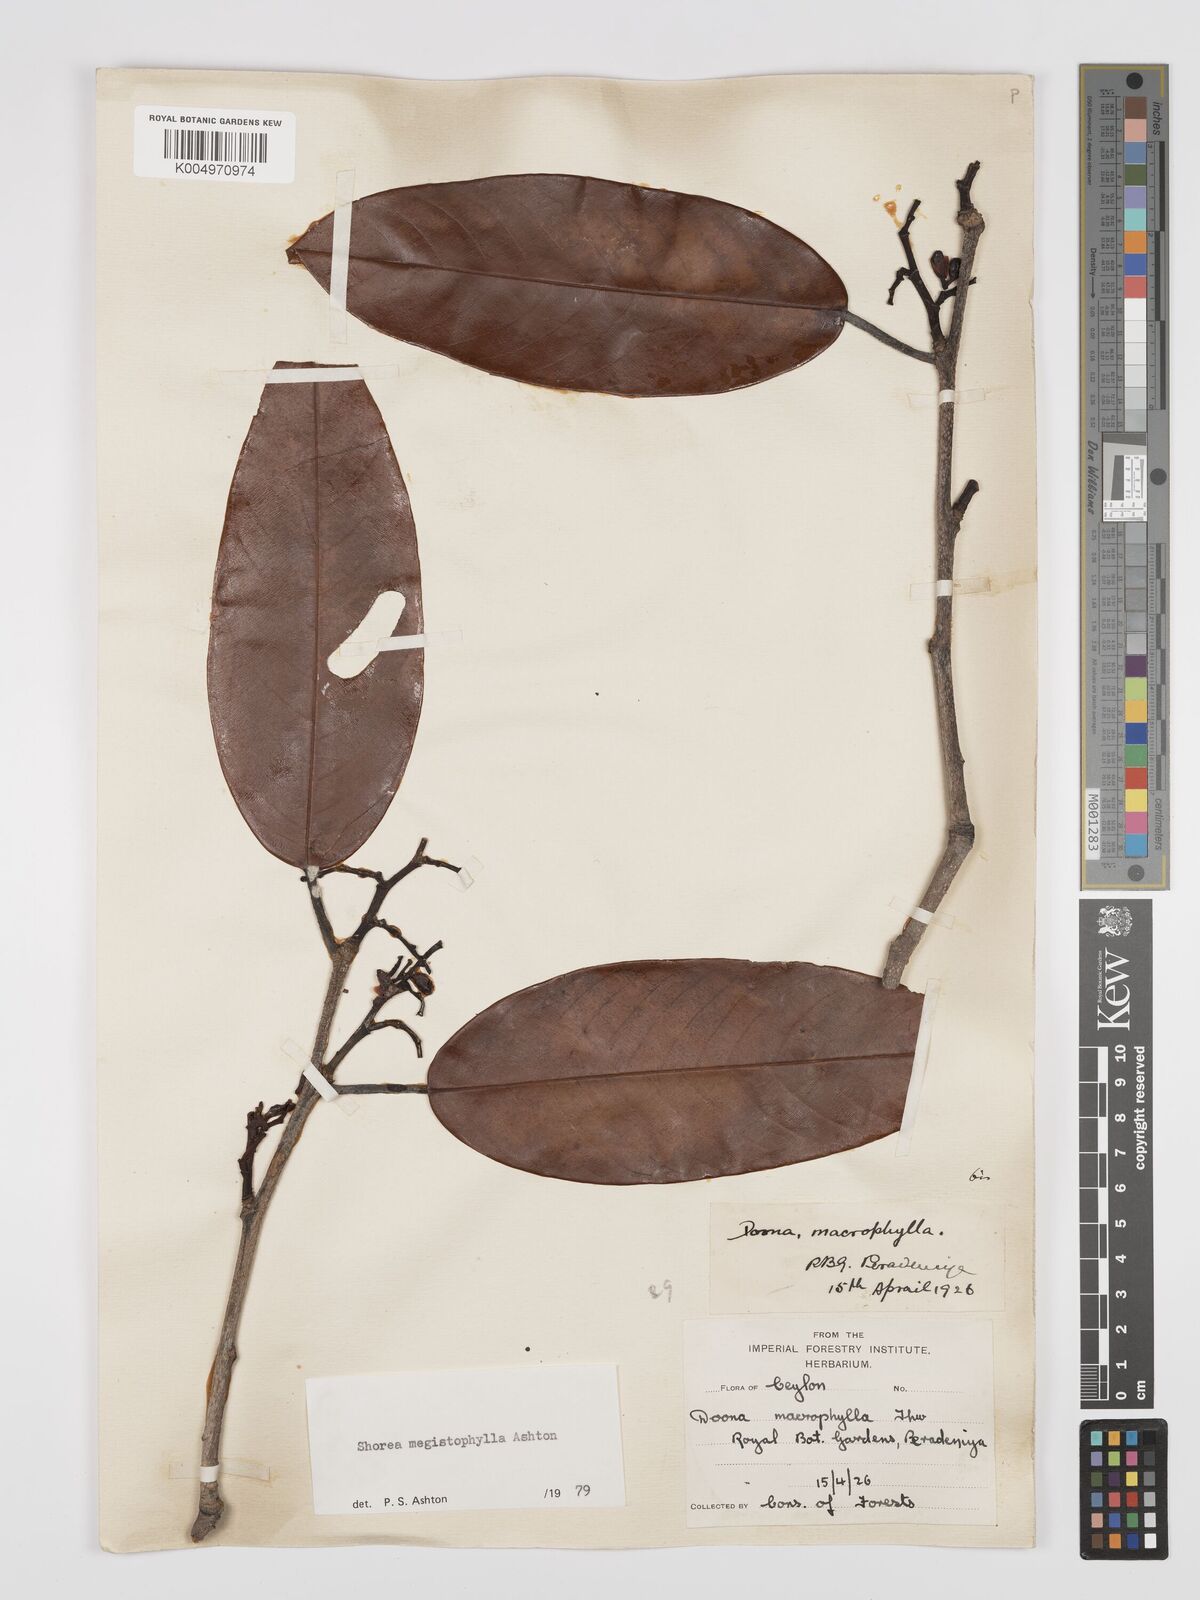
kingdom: Plantae
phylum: Tracheophyta
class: Magnoliopsida
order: Malvales
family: Dipterocarpaceae
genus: Doona
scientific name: Doona macrophylla
